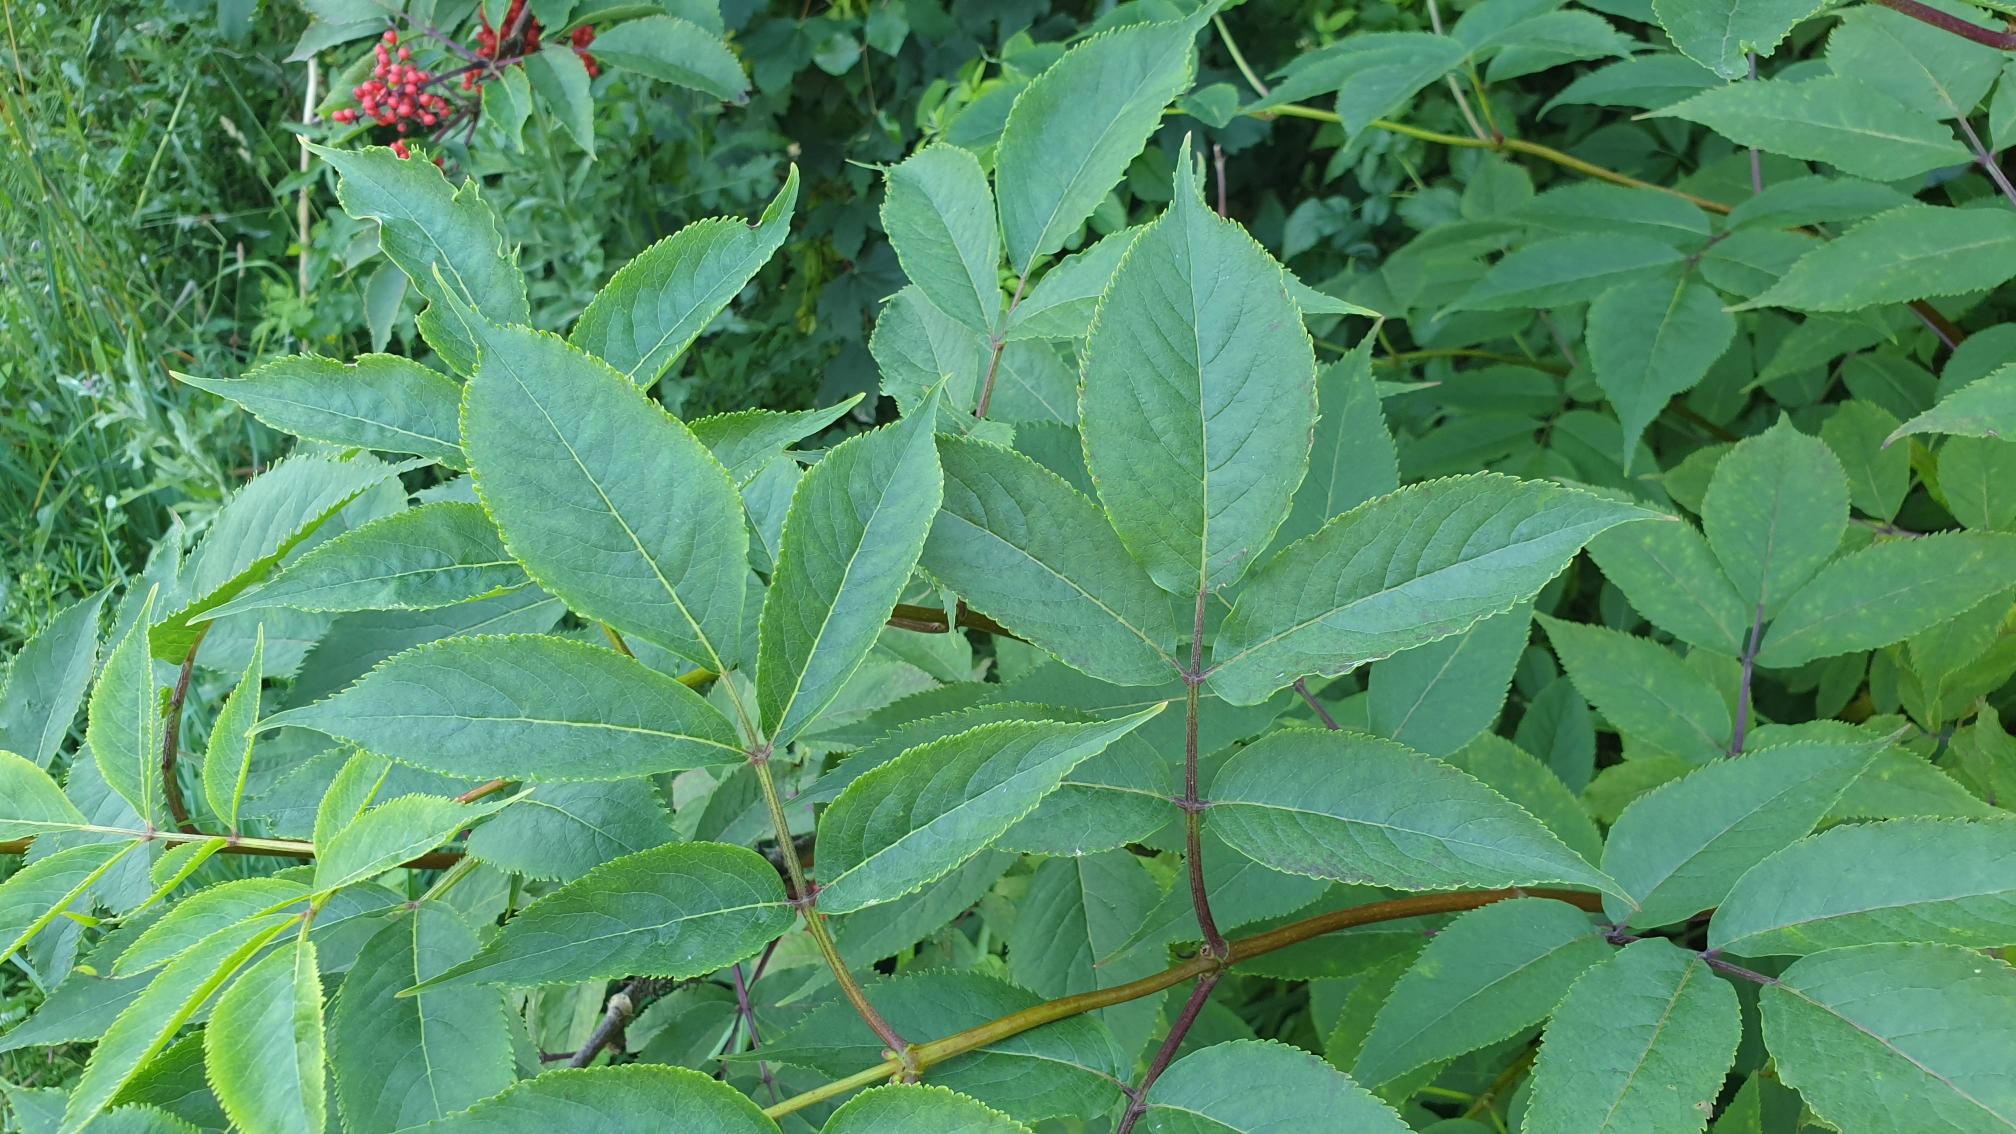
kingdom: Plantae
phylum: Tracheophyta
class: Magnoliopsida
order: Dipsacales
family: Viburnaceae
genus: Sambucus
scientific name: Sambucus racemosa
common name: Drue-hyld
